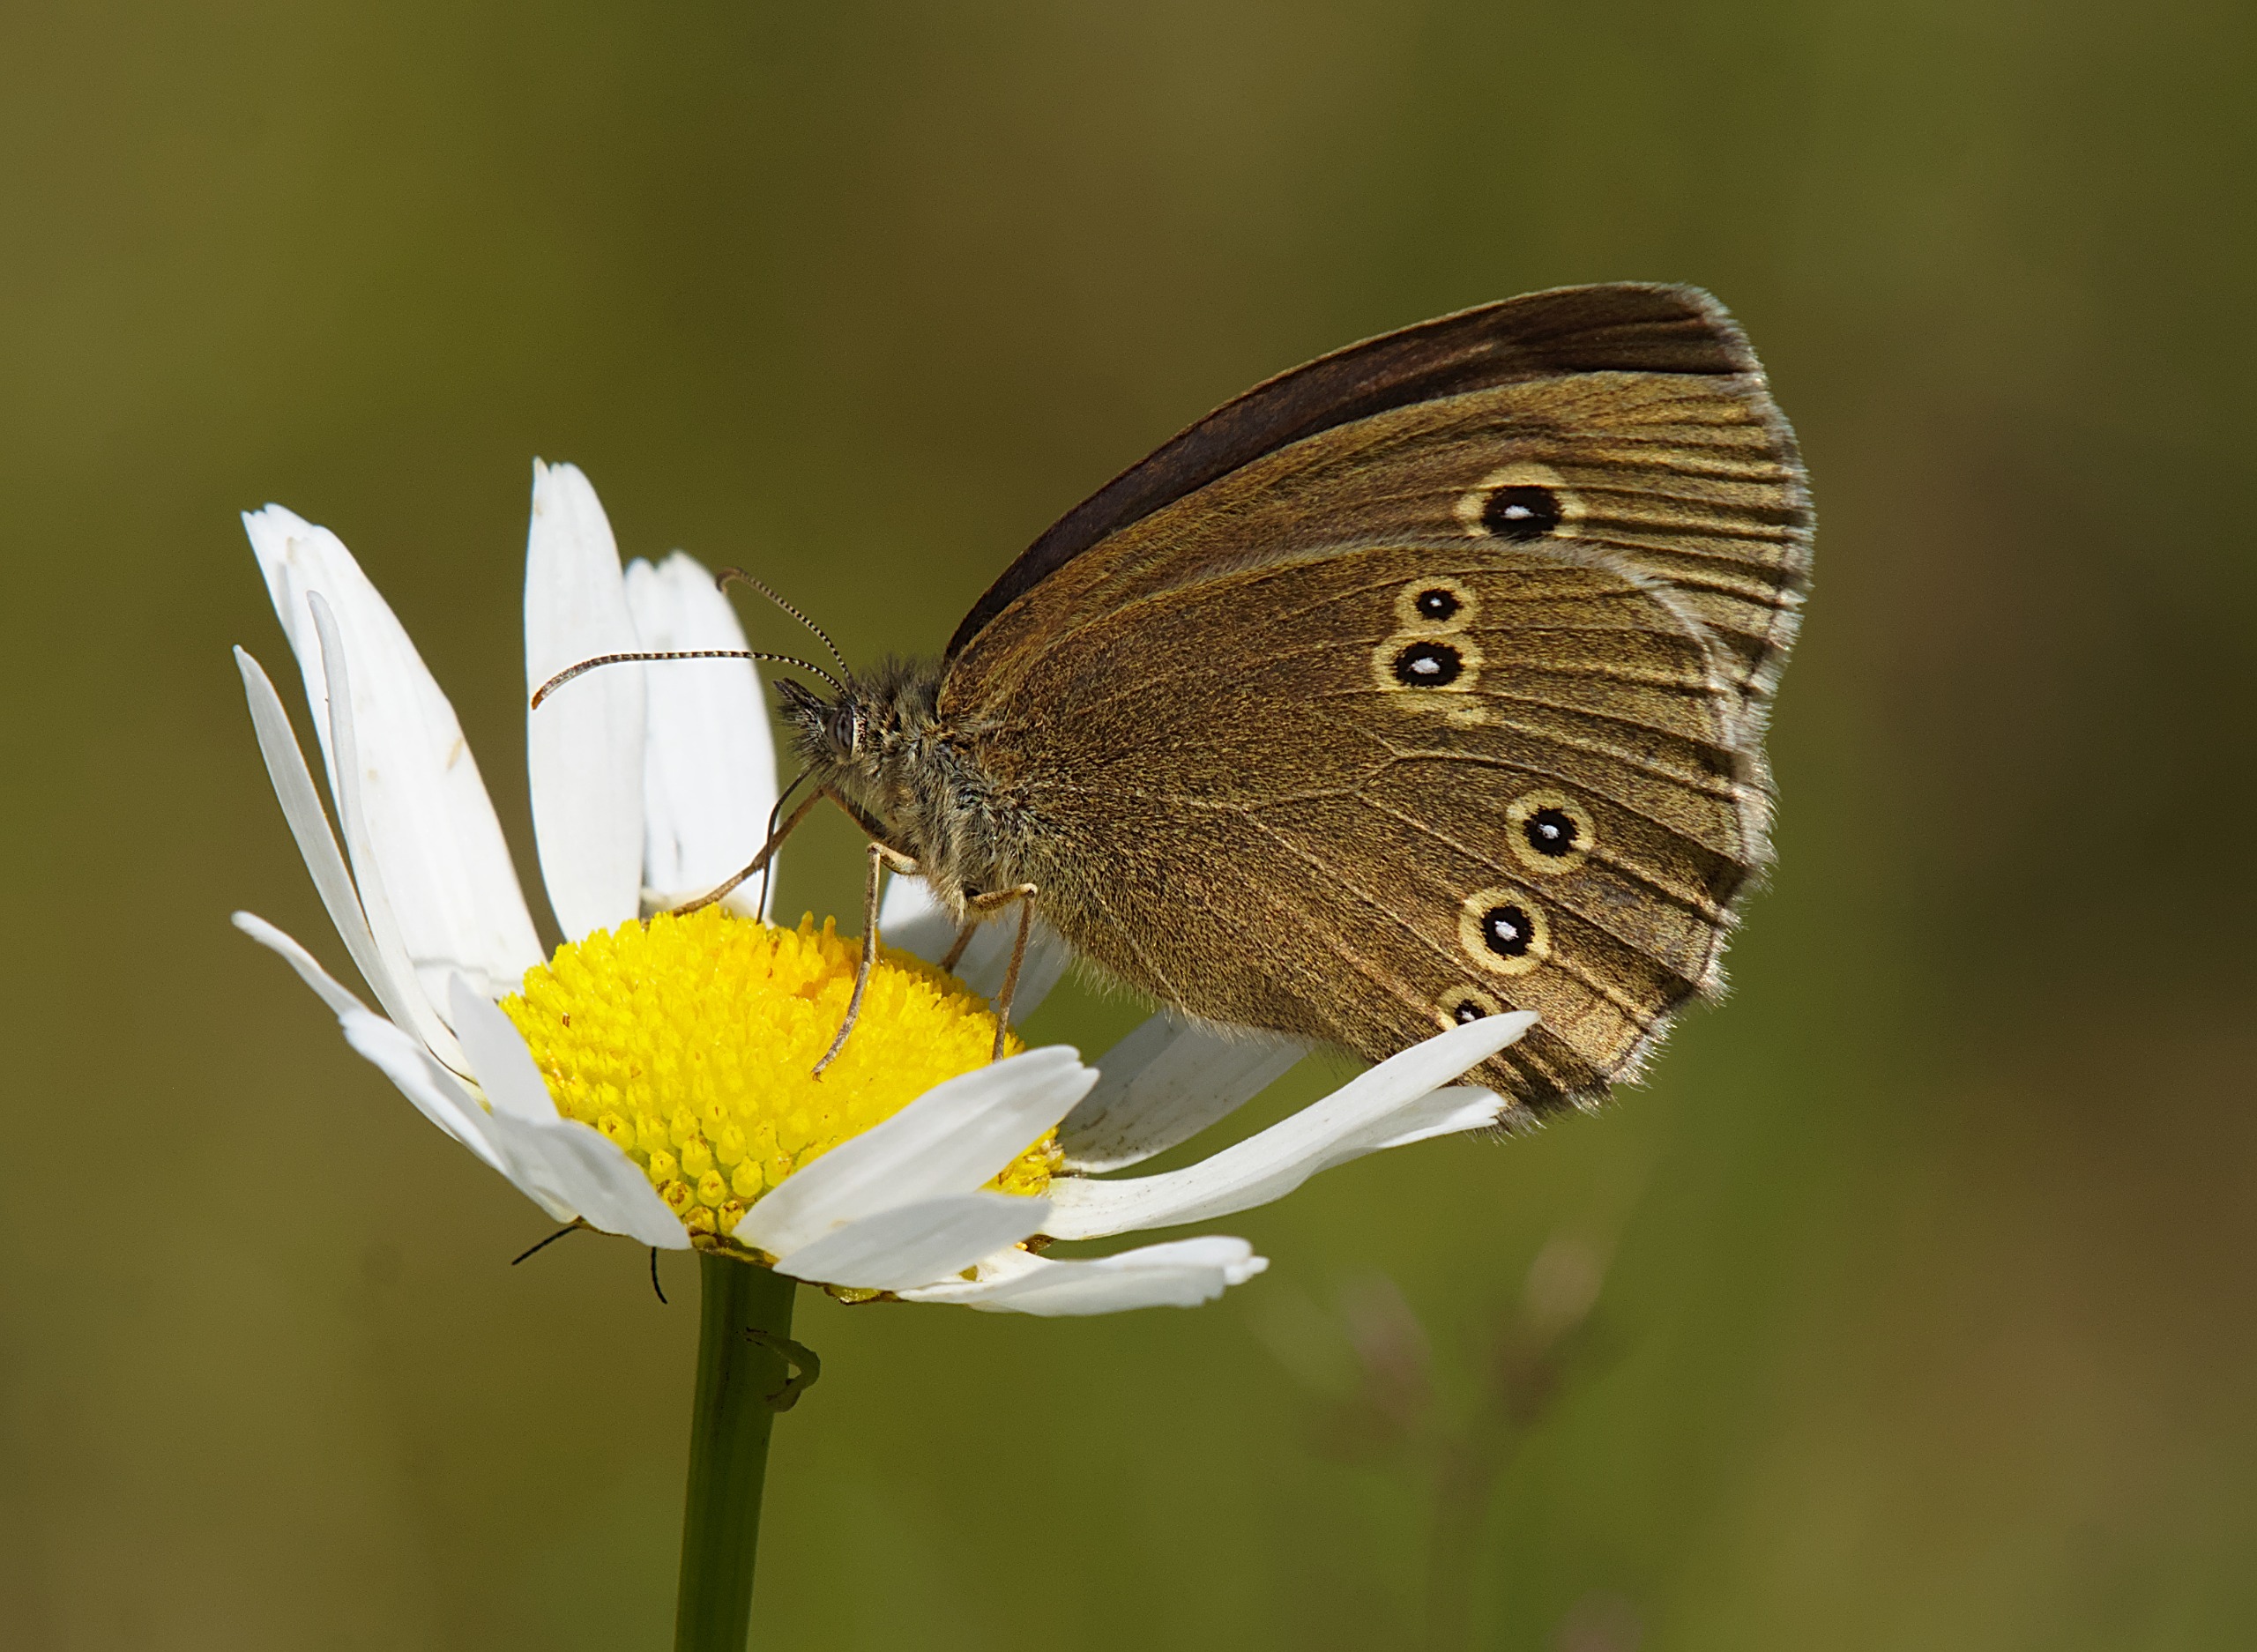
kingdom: Animalia
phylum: Arthropoda
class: Insecta
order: Lepidoptera
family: Nymphalidae
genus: Aphantopus
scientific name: Aphantopus hyperantus
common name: Engrandøje
